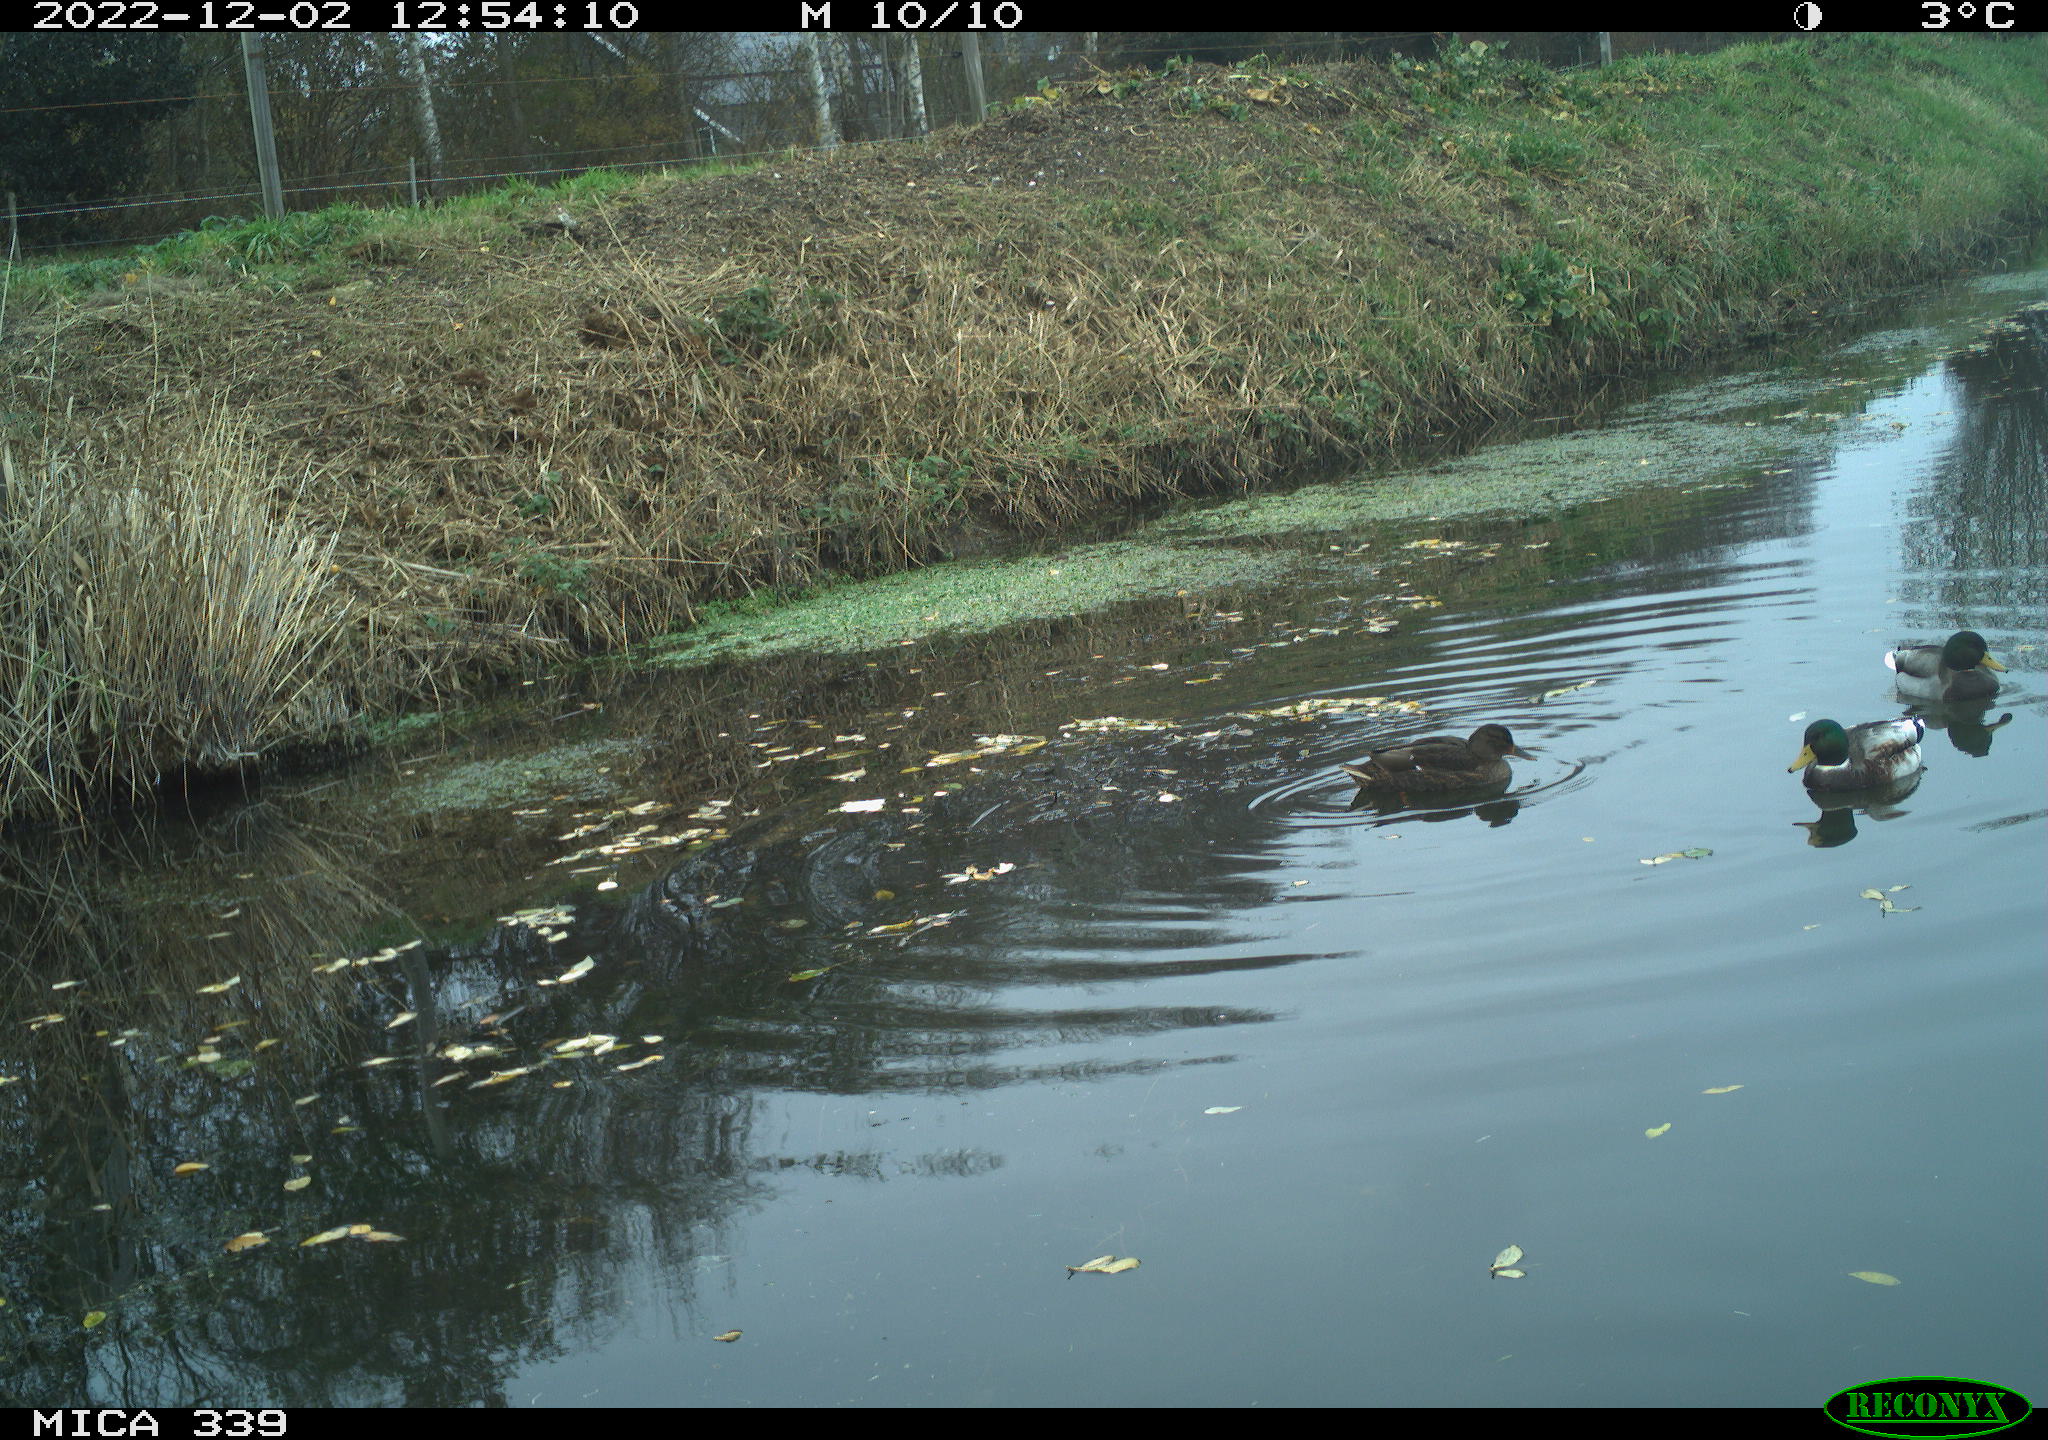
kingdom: Animalia
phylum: Chordata
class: Aves
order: Anseriformes
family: Anatidae
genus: Anas
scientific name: Anas
